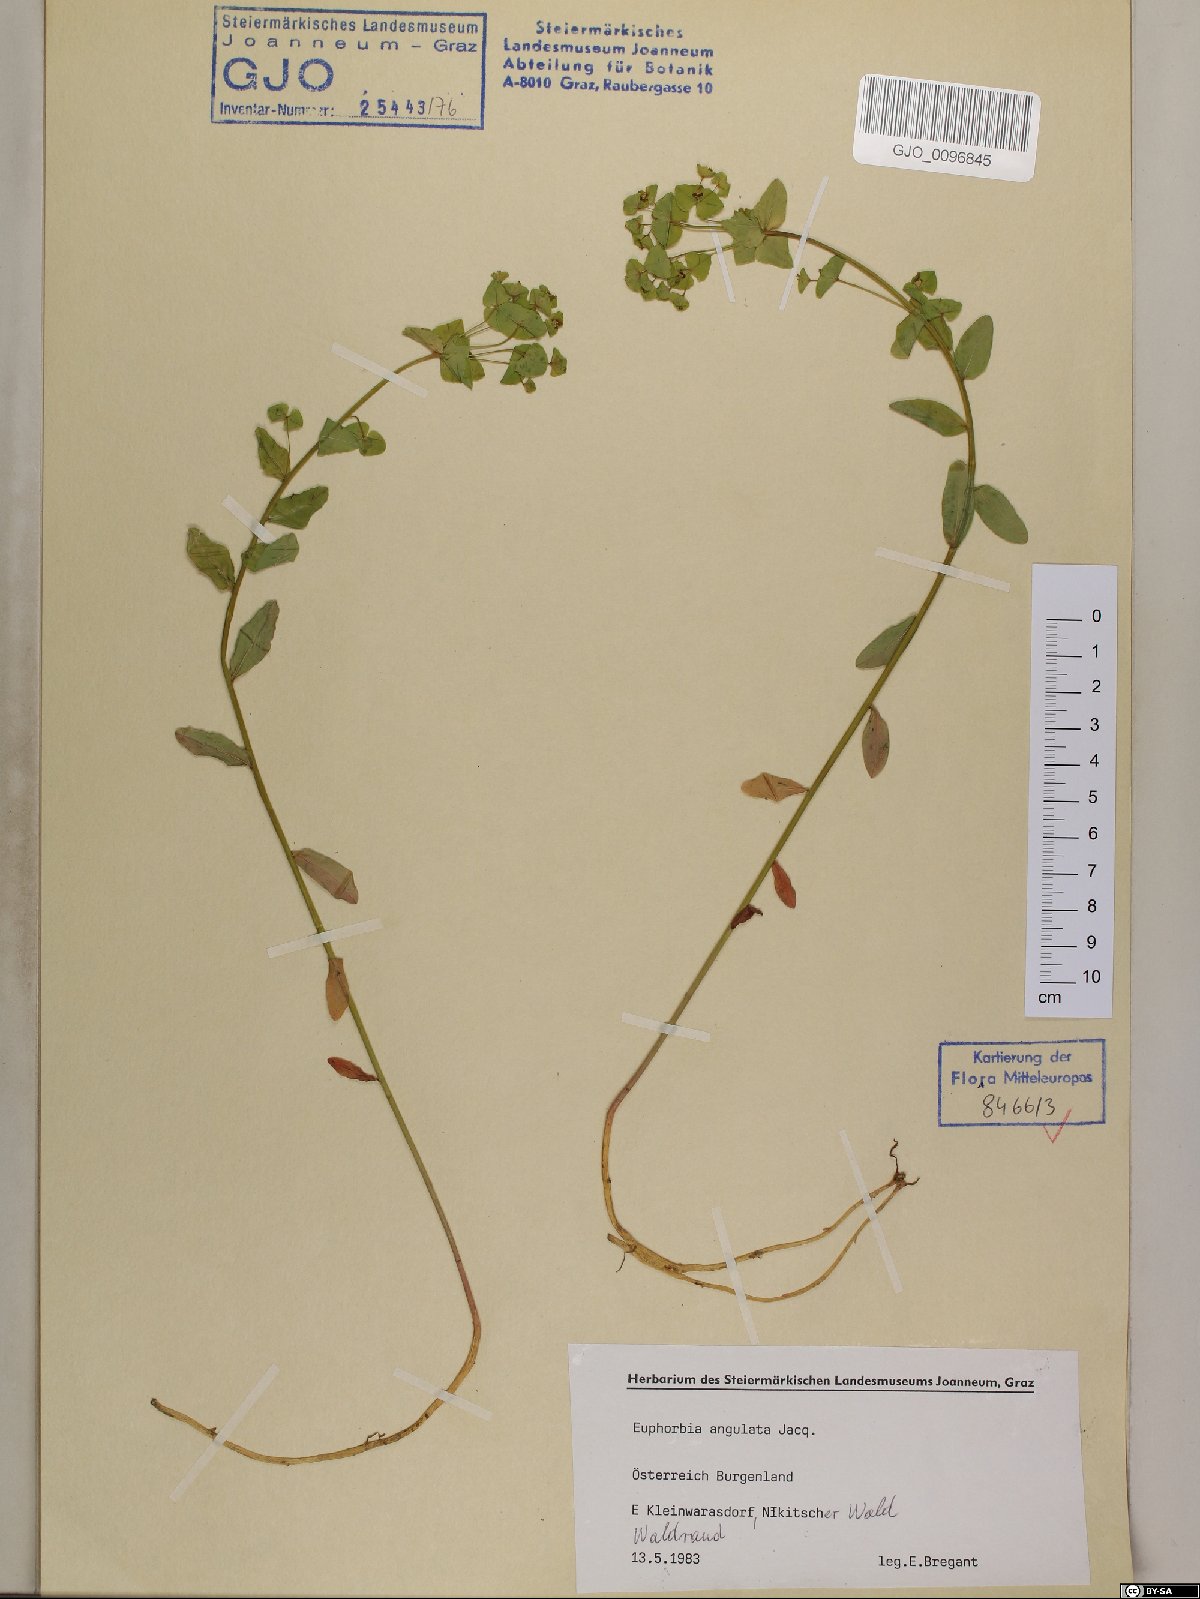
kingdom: Plantae
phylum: Tracheophyta
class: Magnoliopsida
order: Malpighiales
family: Euphorbiaceae
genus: Euphorbia
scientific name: Euphorbia angulata
